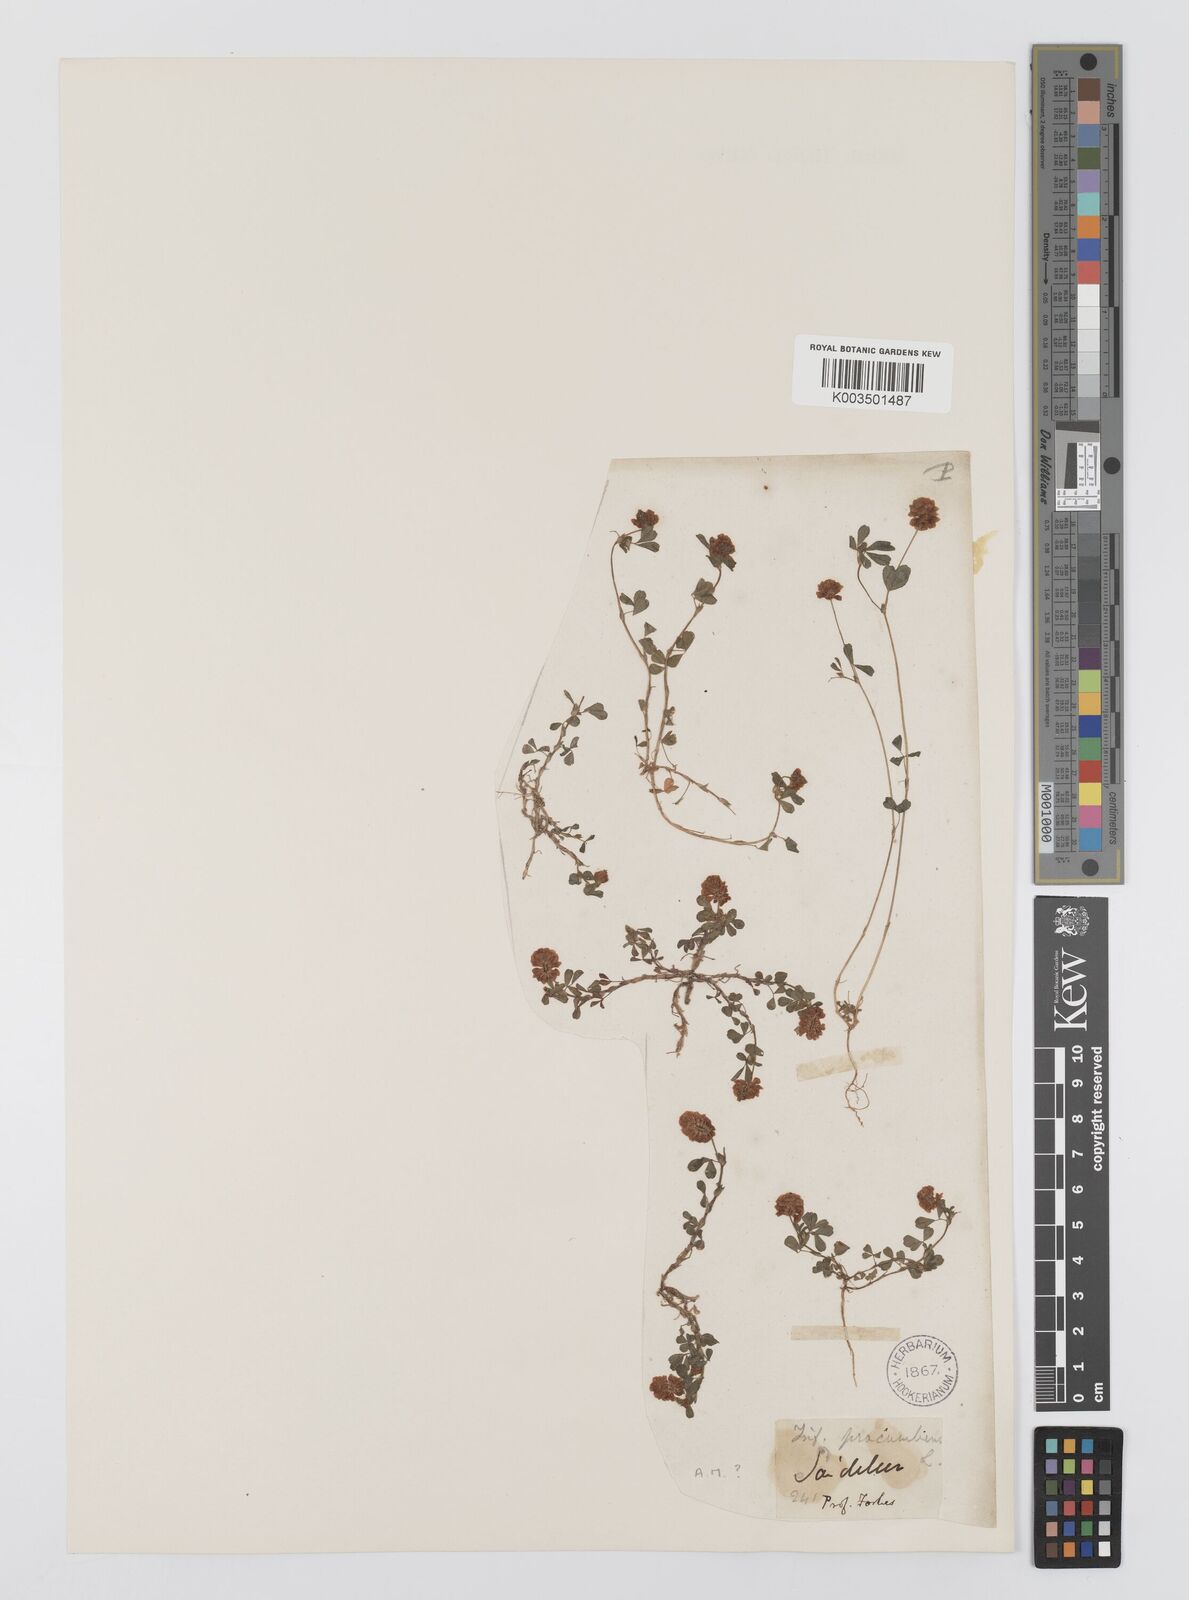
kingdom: Plantae
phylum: Tracheophyta
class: Magnoliopsida
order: Fabales
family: Fabaceae
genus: Trifolium
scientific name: Trifolium campestre
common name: Field clover
